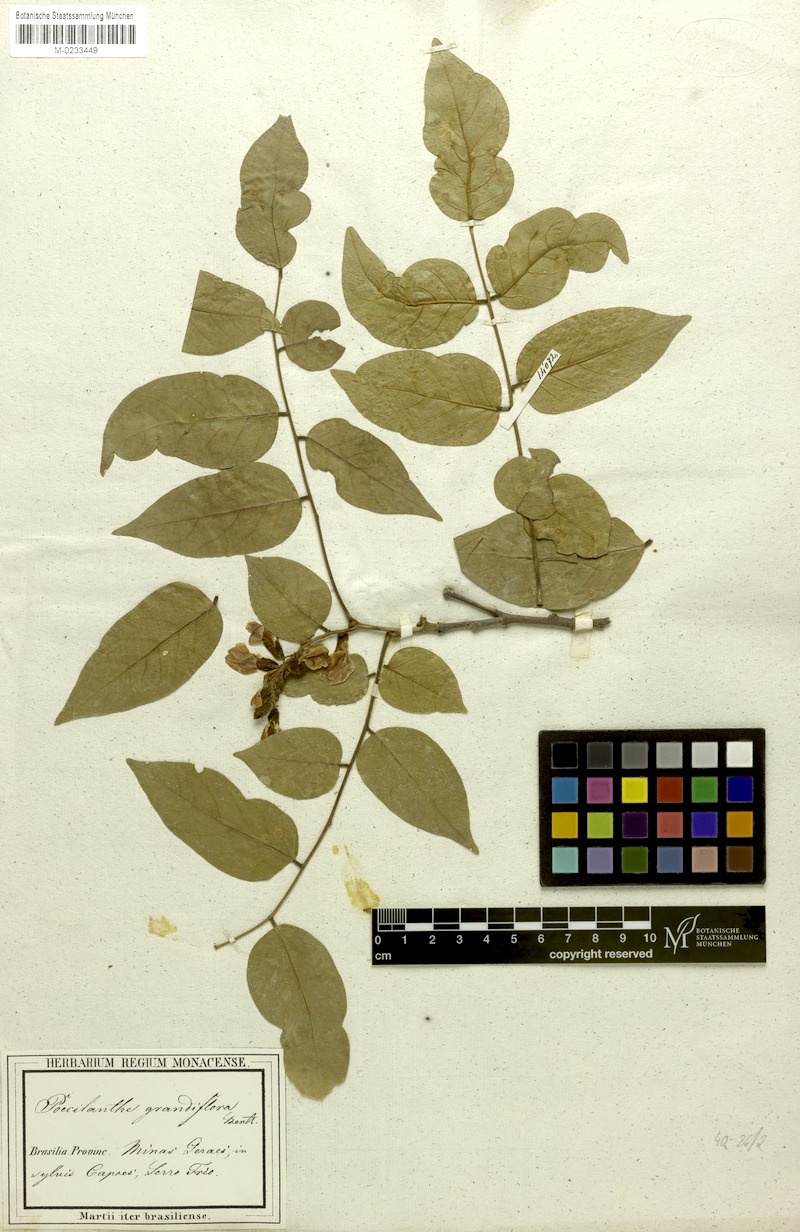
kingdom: Plantae
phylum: Tracheophyta
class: Magnoliopsida
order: Fabales
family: Fabaceae
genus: Poecilanthe
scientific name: Poecilanthe falcata
